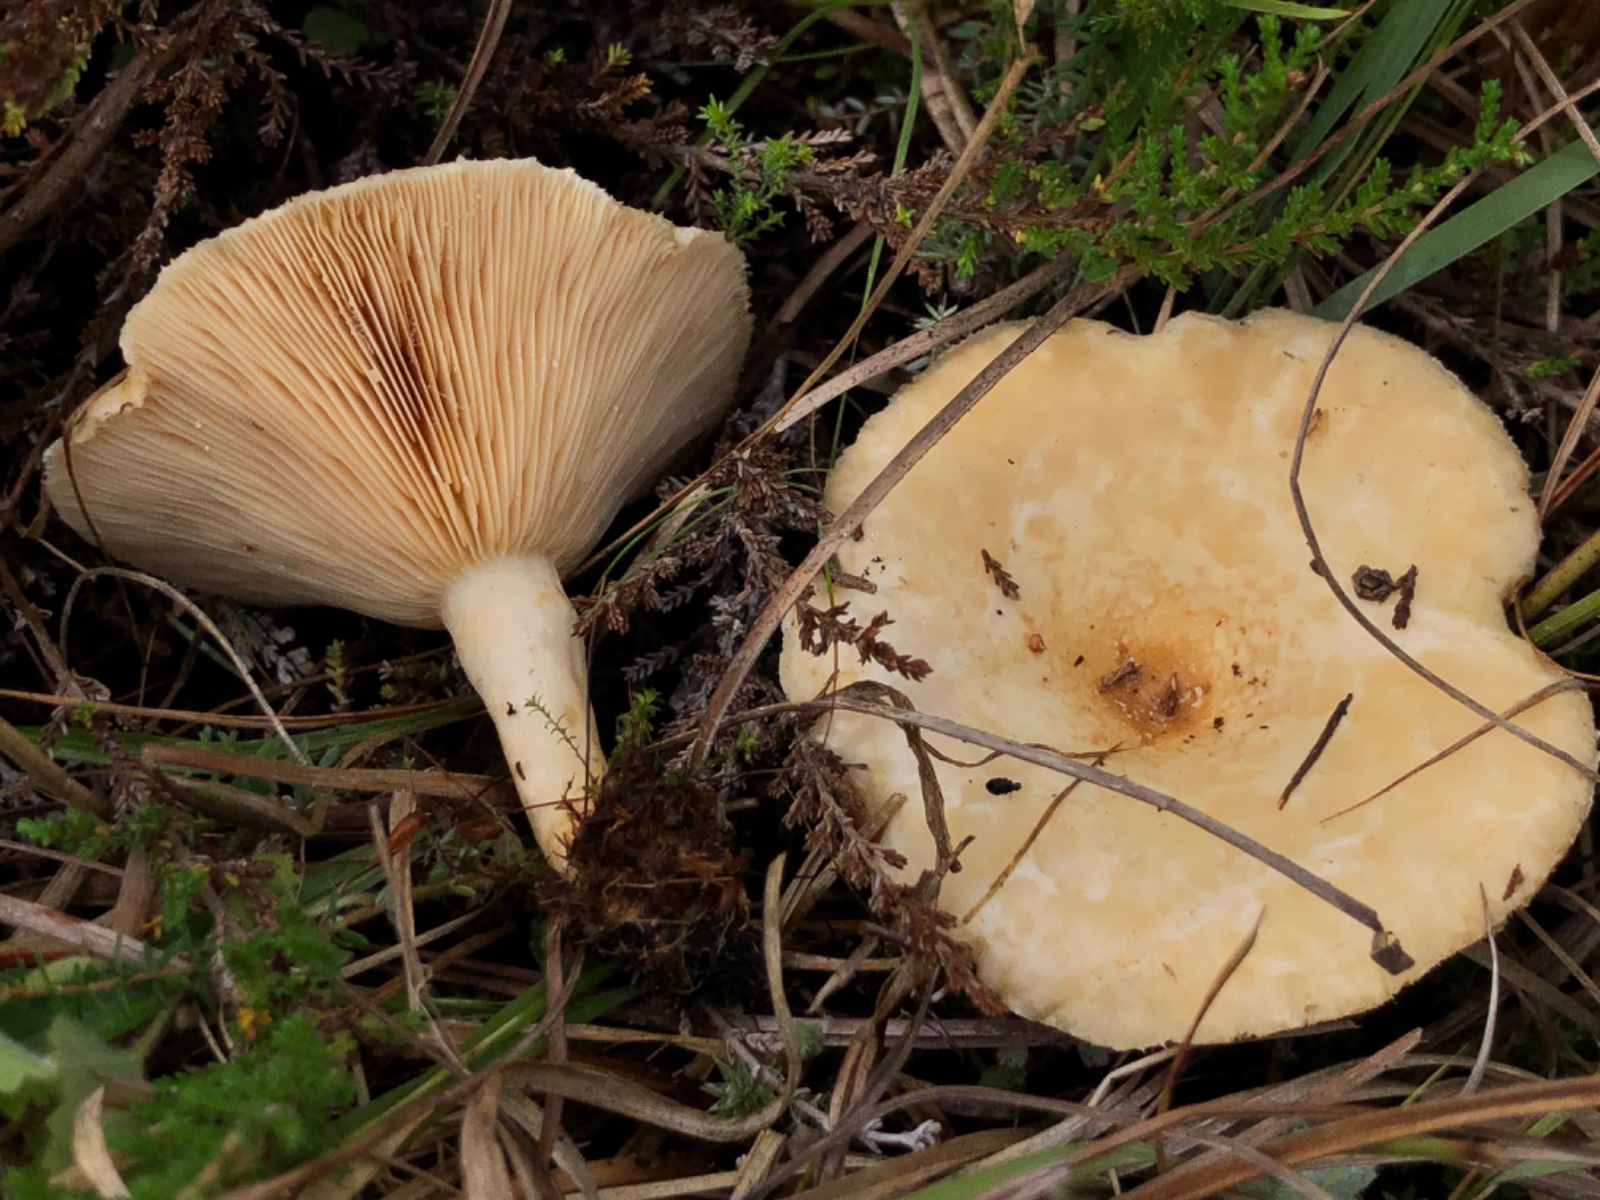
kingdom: Fungi
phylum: Basidiomycota
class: Agaricomycetes
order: Russulales
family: Russulaceae
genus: Lactarius
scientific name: Lactarius pubescens
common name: dunet mælkehat
